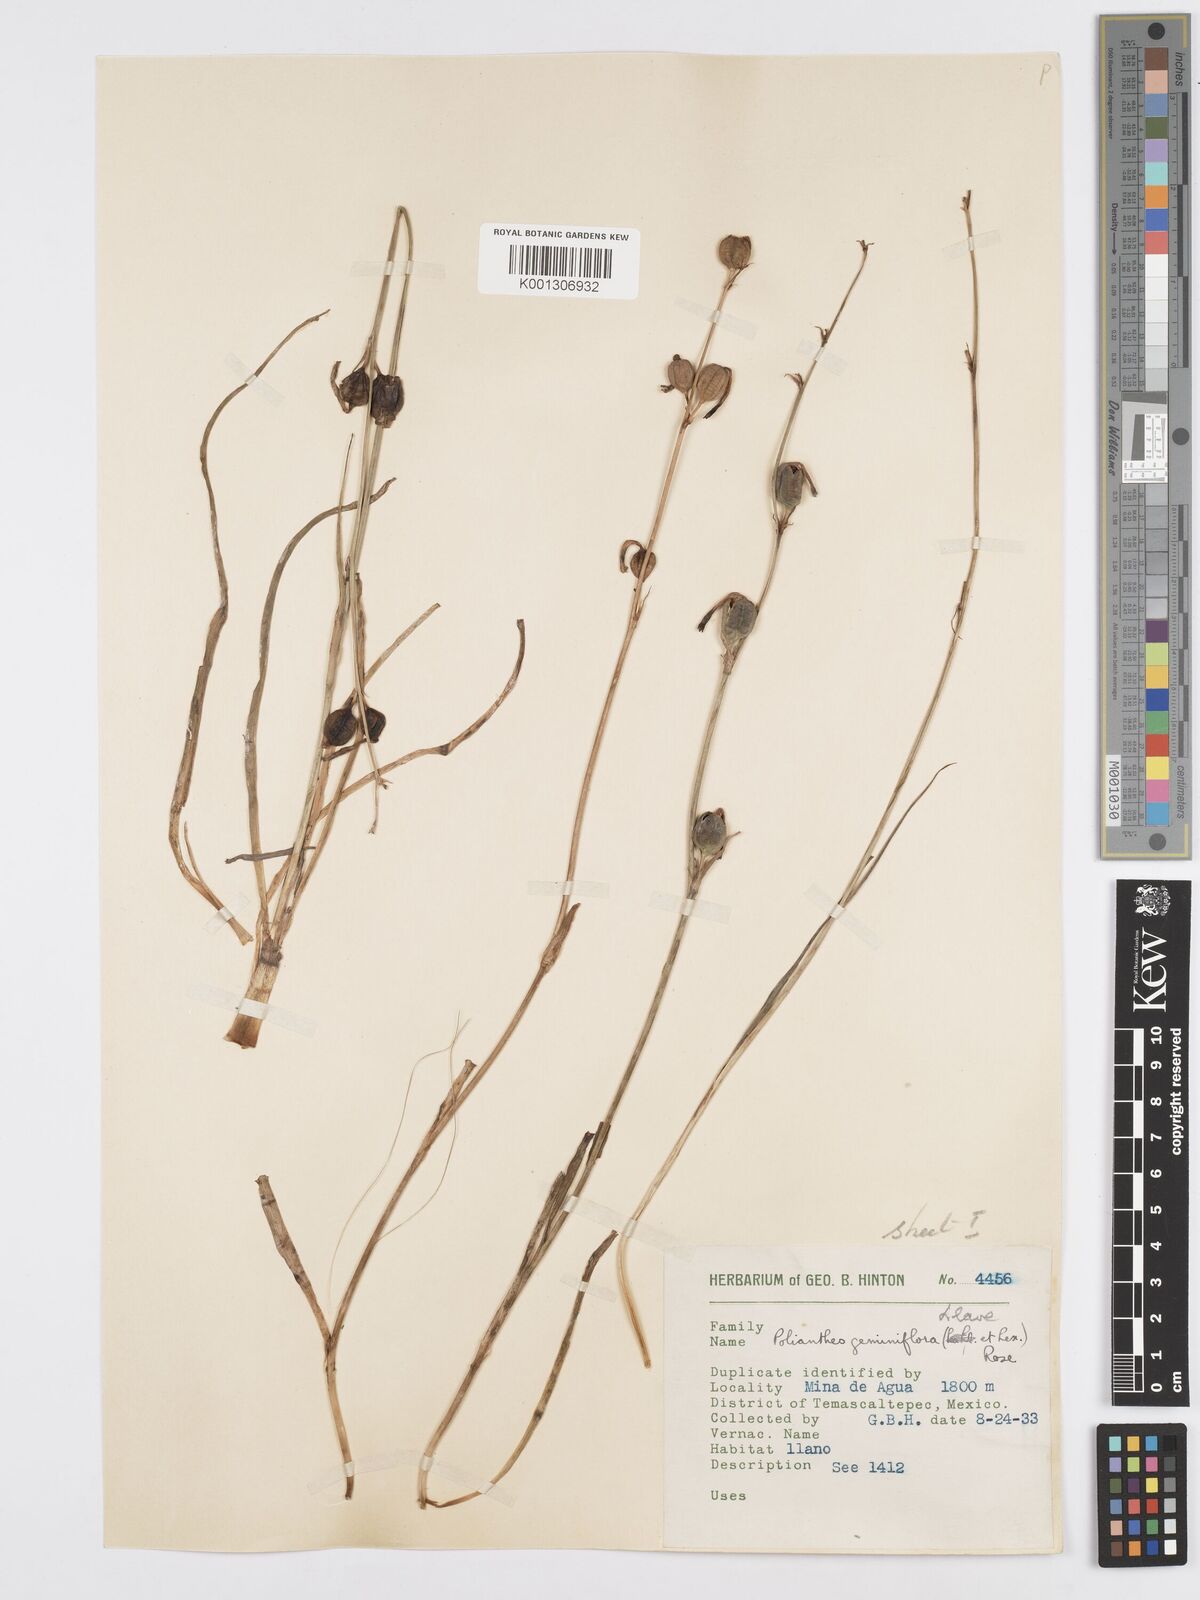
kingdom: Plantae
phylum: Tracheophyta
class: Liliopsida
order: Asparagales
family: Asparagaceae
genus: Agave
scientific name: Agave coetocapnia
